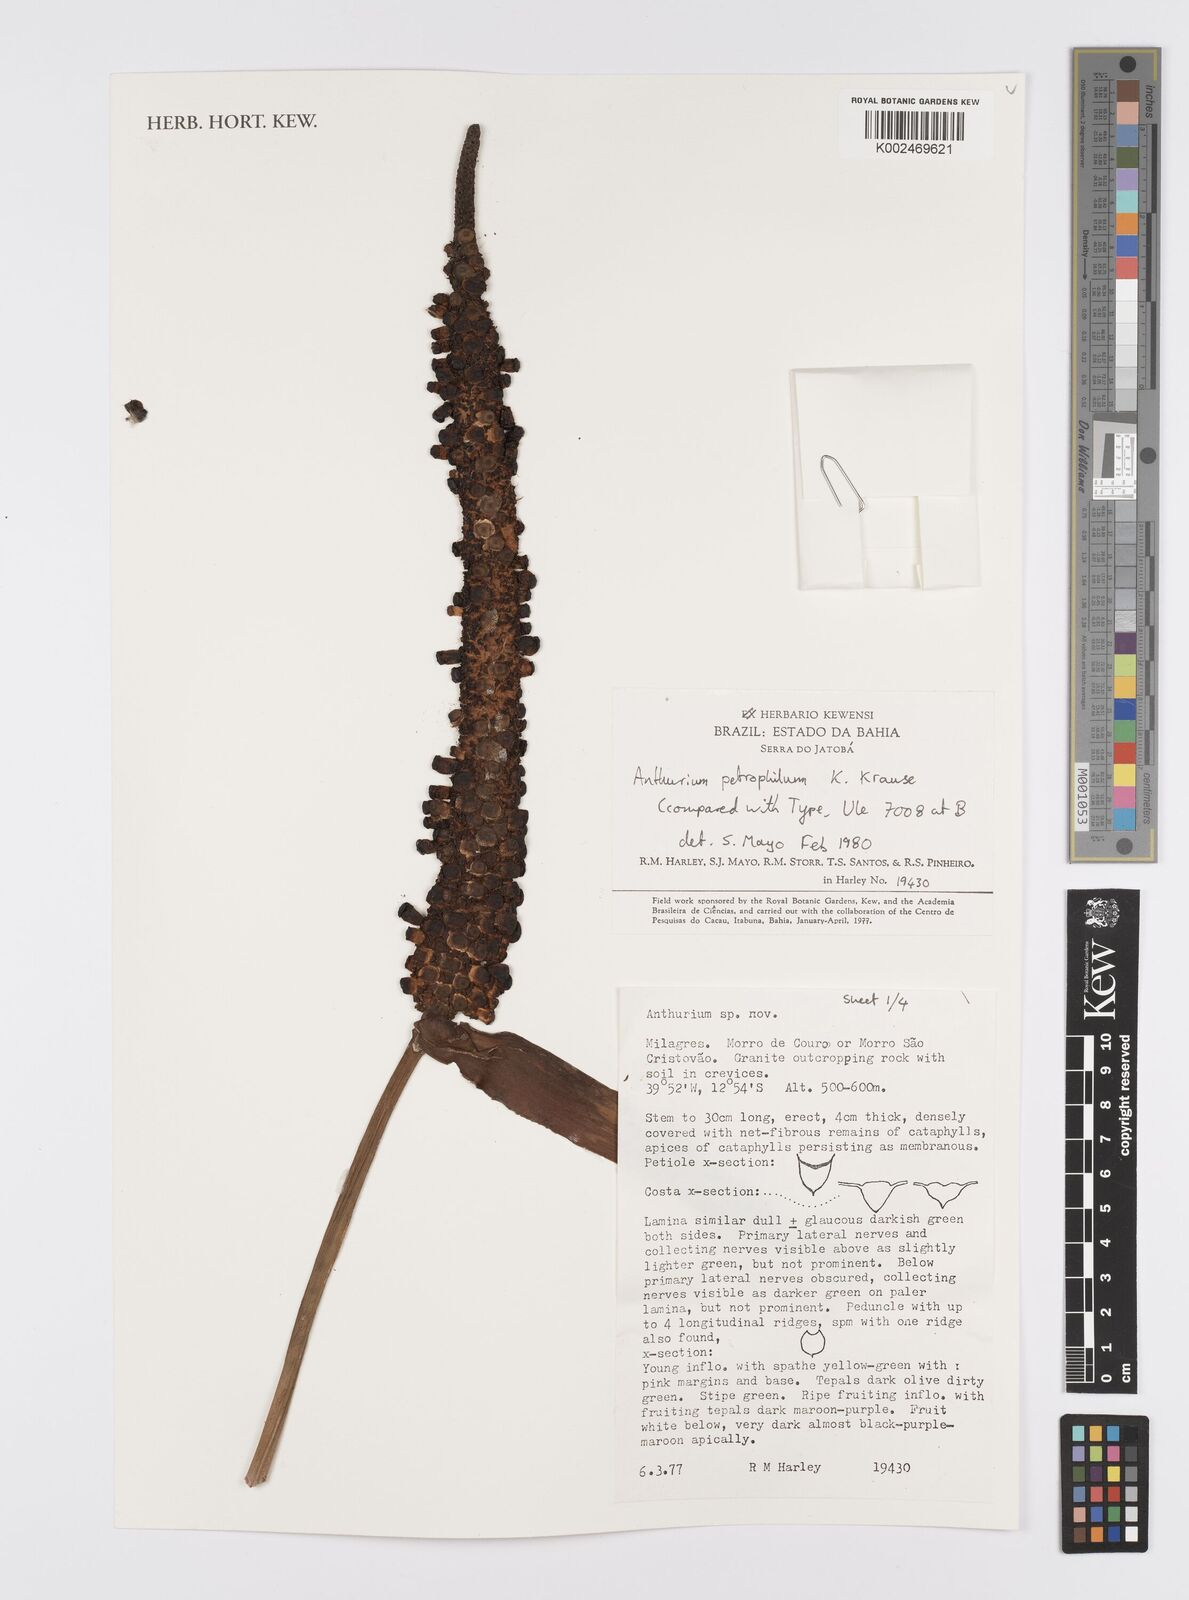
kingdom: Plantae
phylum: Tracheophyta
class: Liliopsida
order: Alismatales
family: Araceae
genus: Anthurium
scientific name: Anthurium petrophilum
